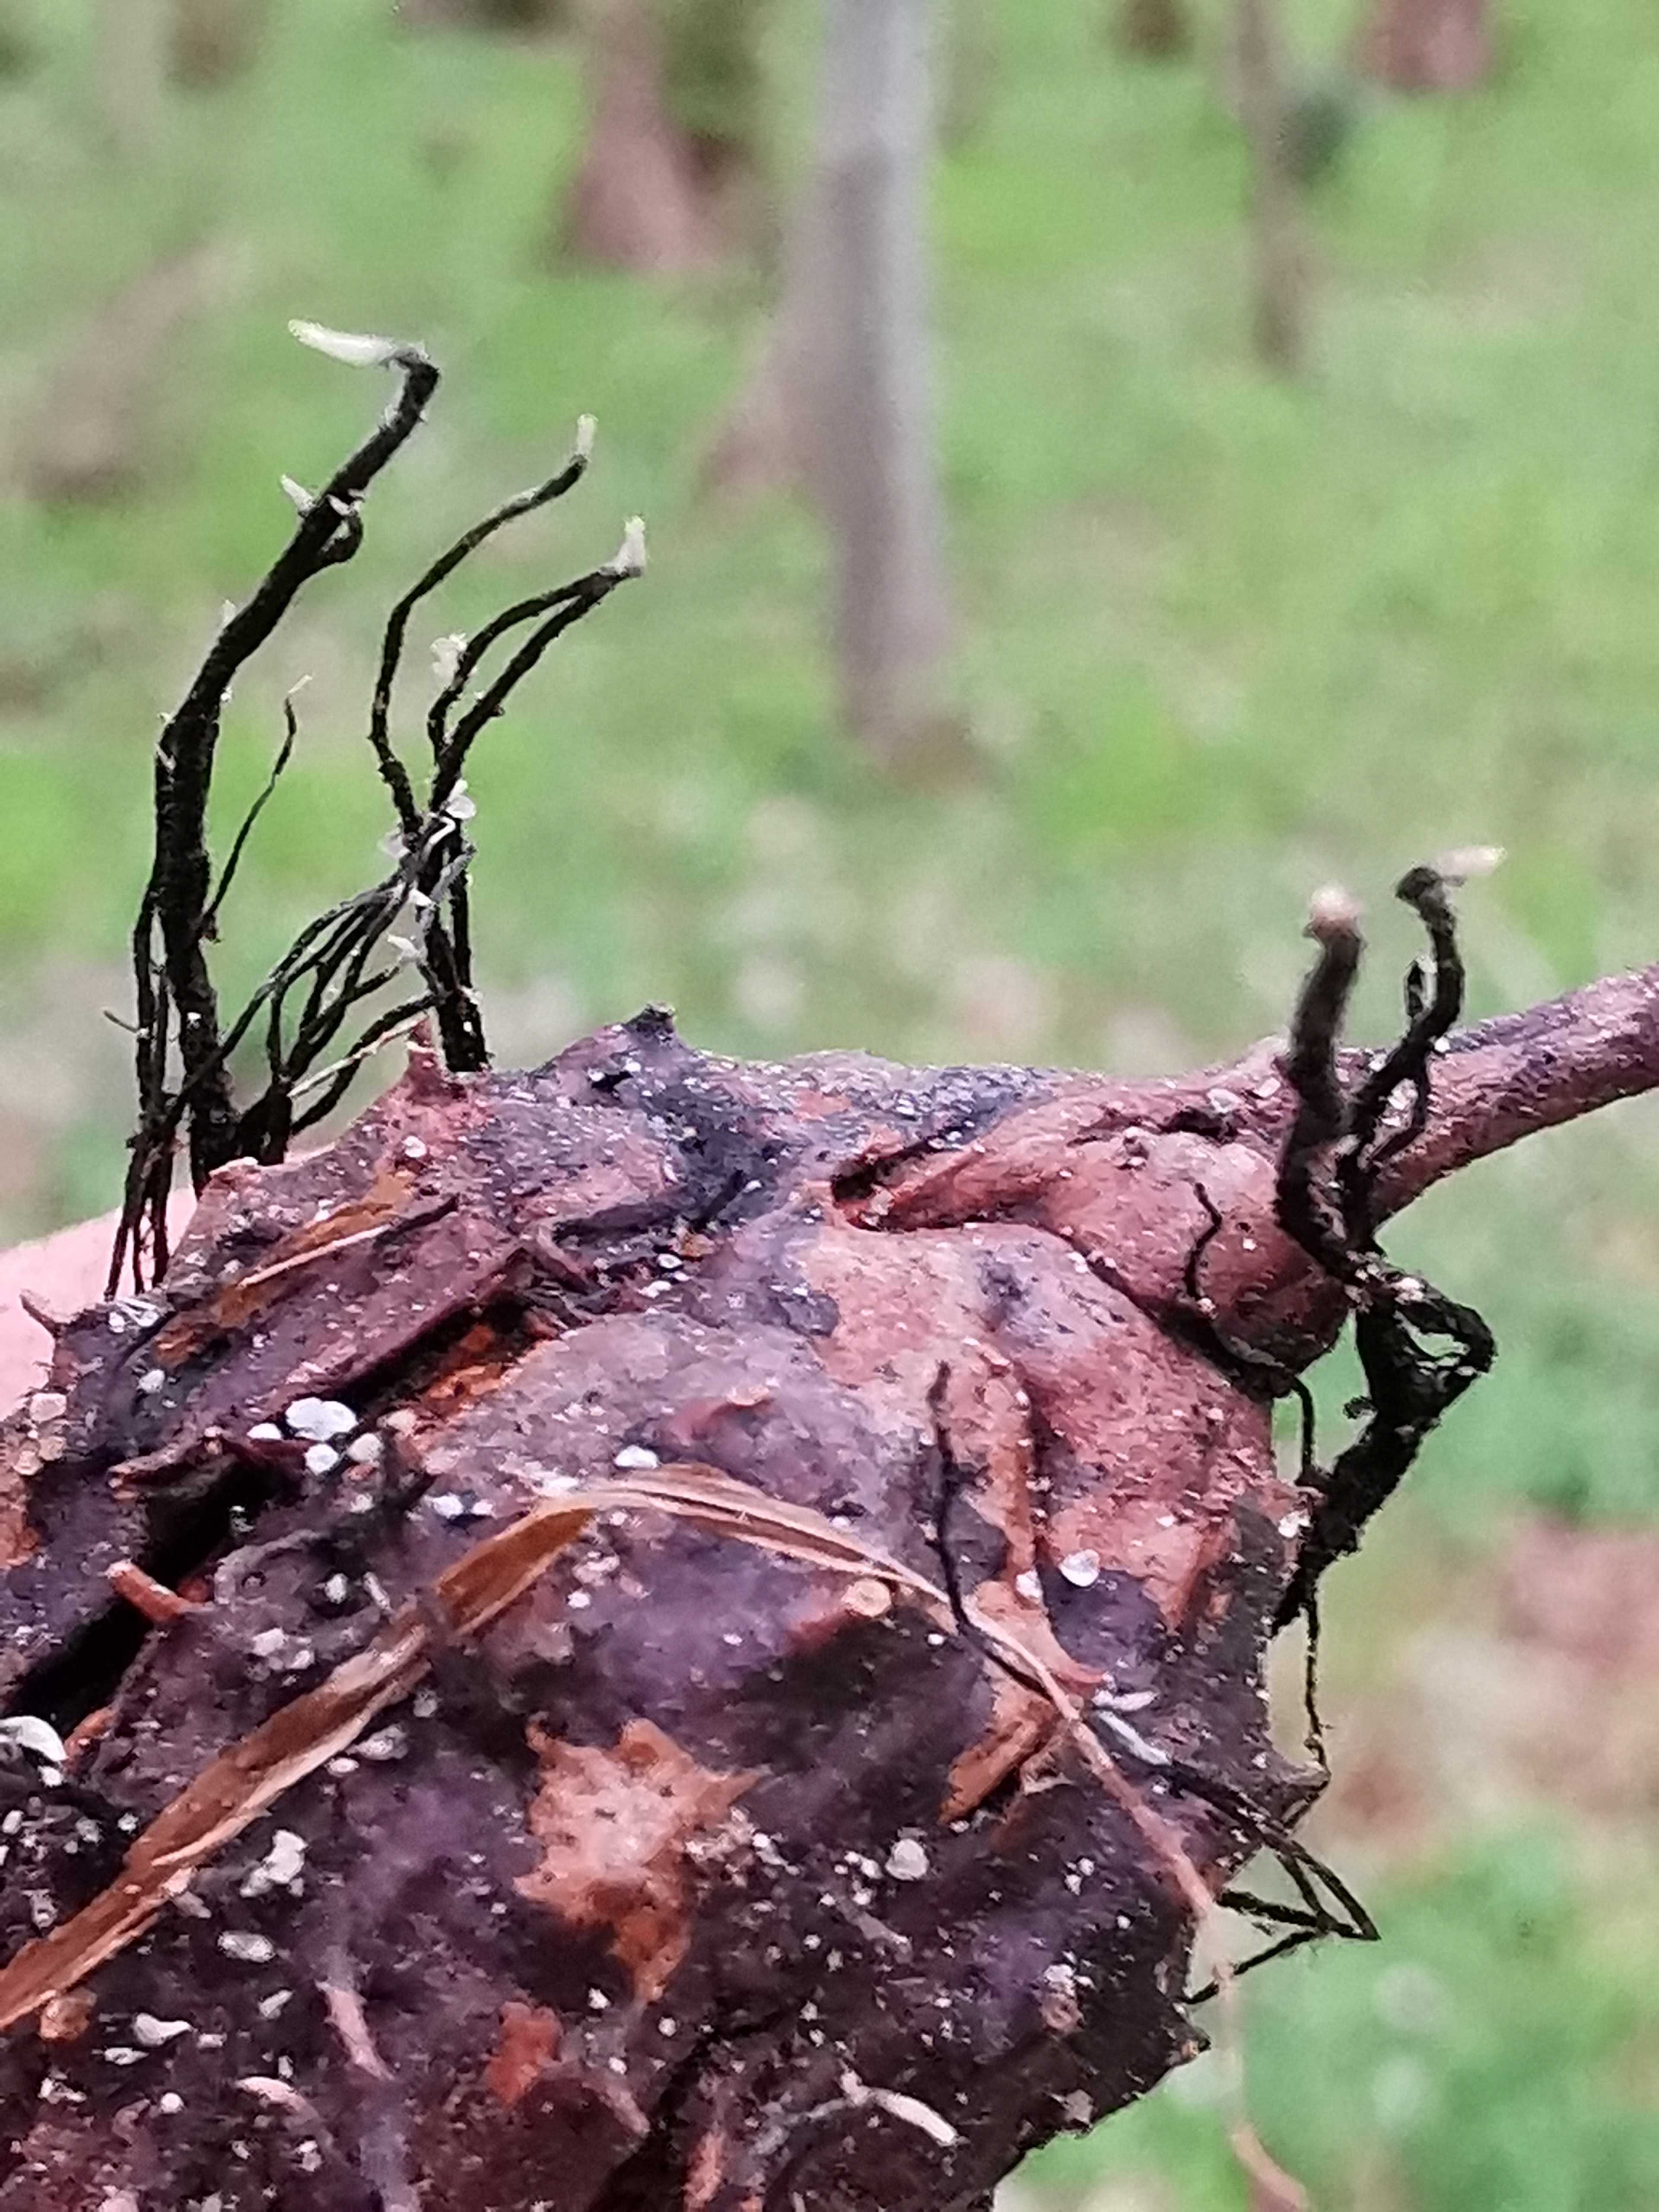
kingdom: Fungi
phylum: Ascomycota
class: Sordariomycetes
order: Xylariales
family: Xylariaceae
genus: Xylaria
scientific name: Xylaria carpophila
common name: bogskål-stødsvamp
